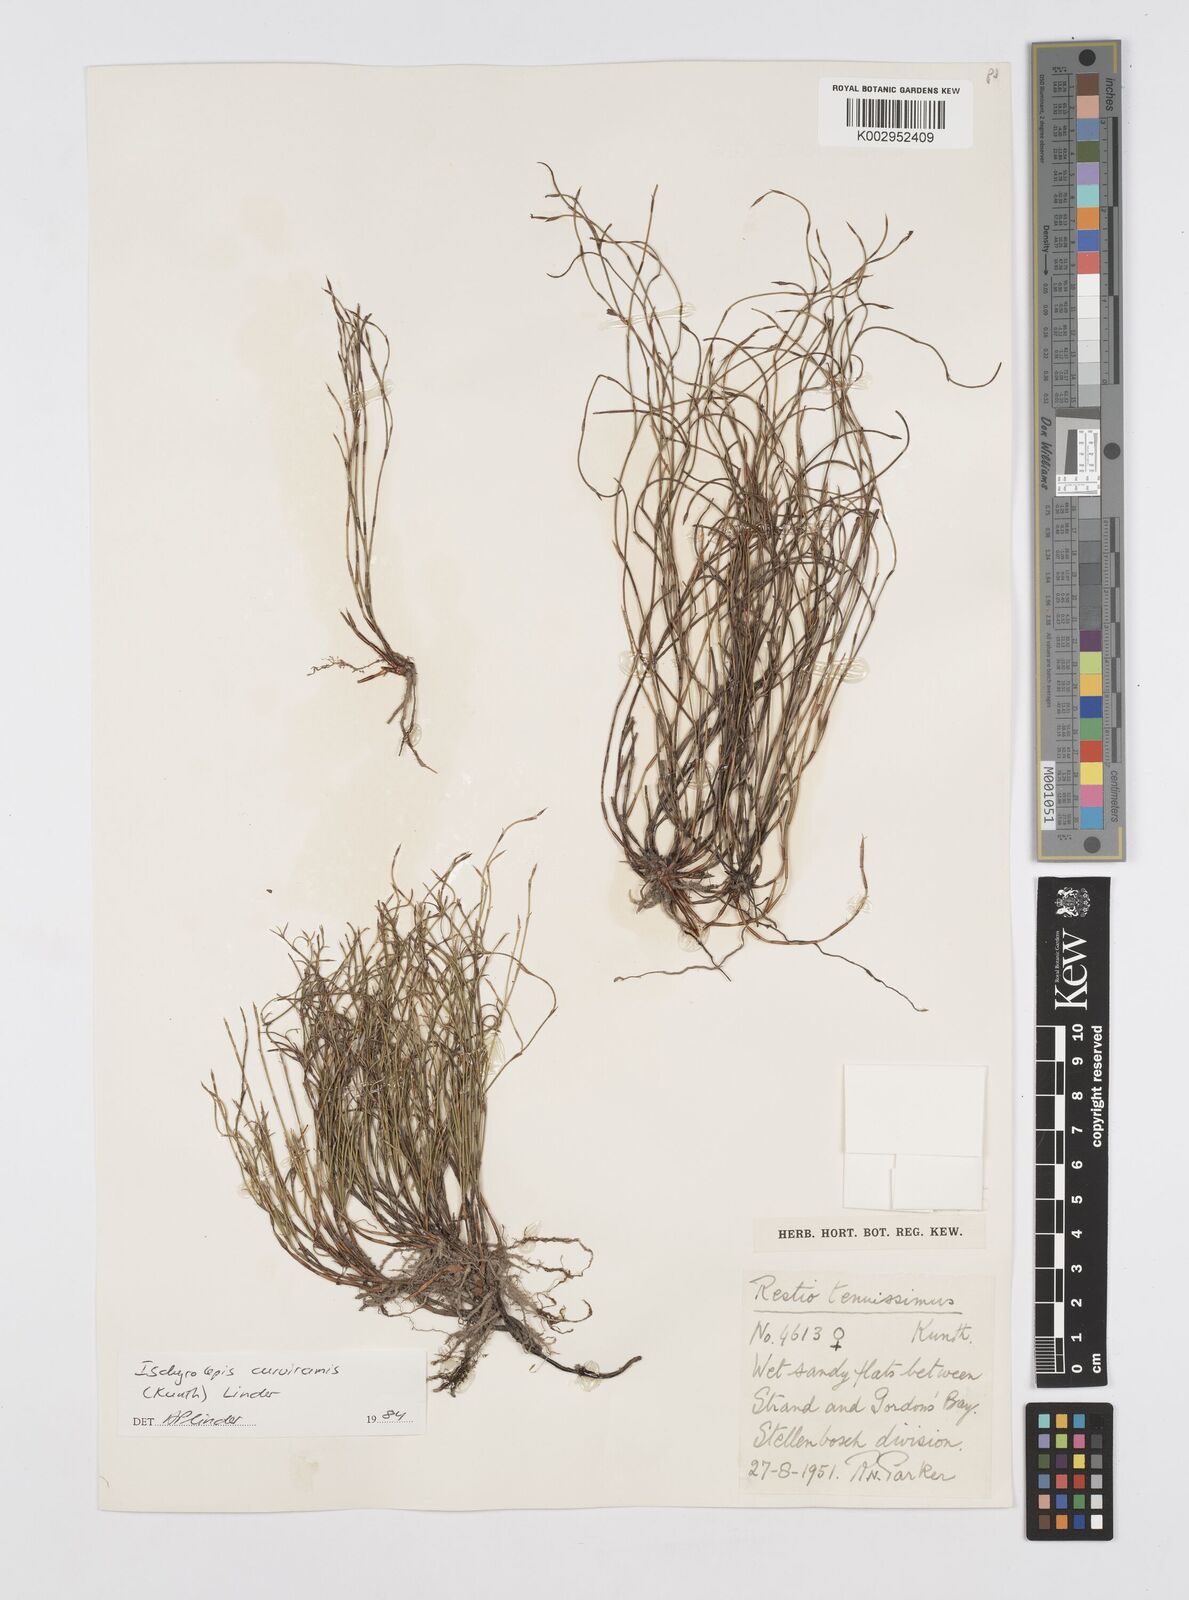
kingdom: Plantae
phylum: Tracheophyta
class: Liliopsida
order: Poales
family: Restionaceae
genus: Restio
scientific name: Restio curviramis
